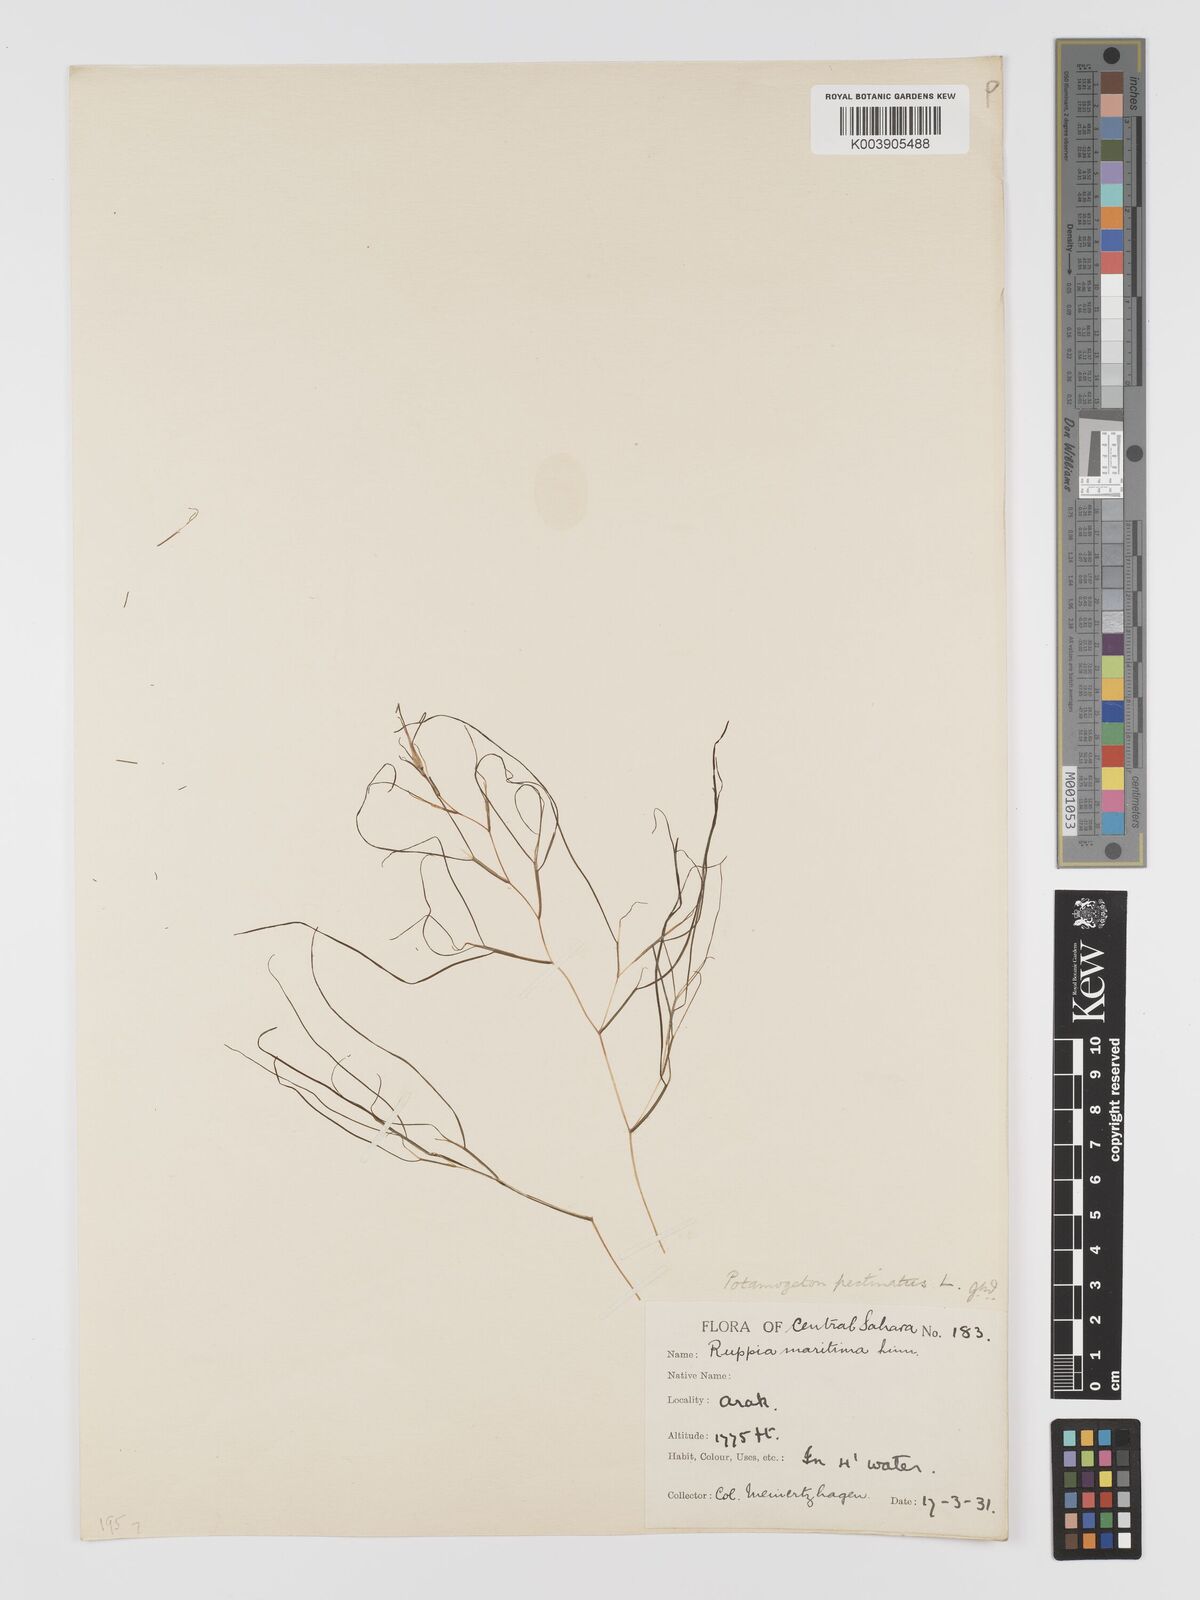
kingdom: Plantae
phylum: Tracheophyta
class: Liliopsida
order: Alismatales
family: Potamogetonaceae
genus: Stuckenia
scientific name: Stuckenia pectinata
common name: Sago pondweed
